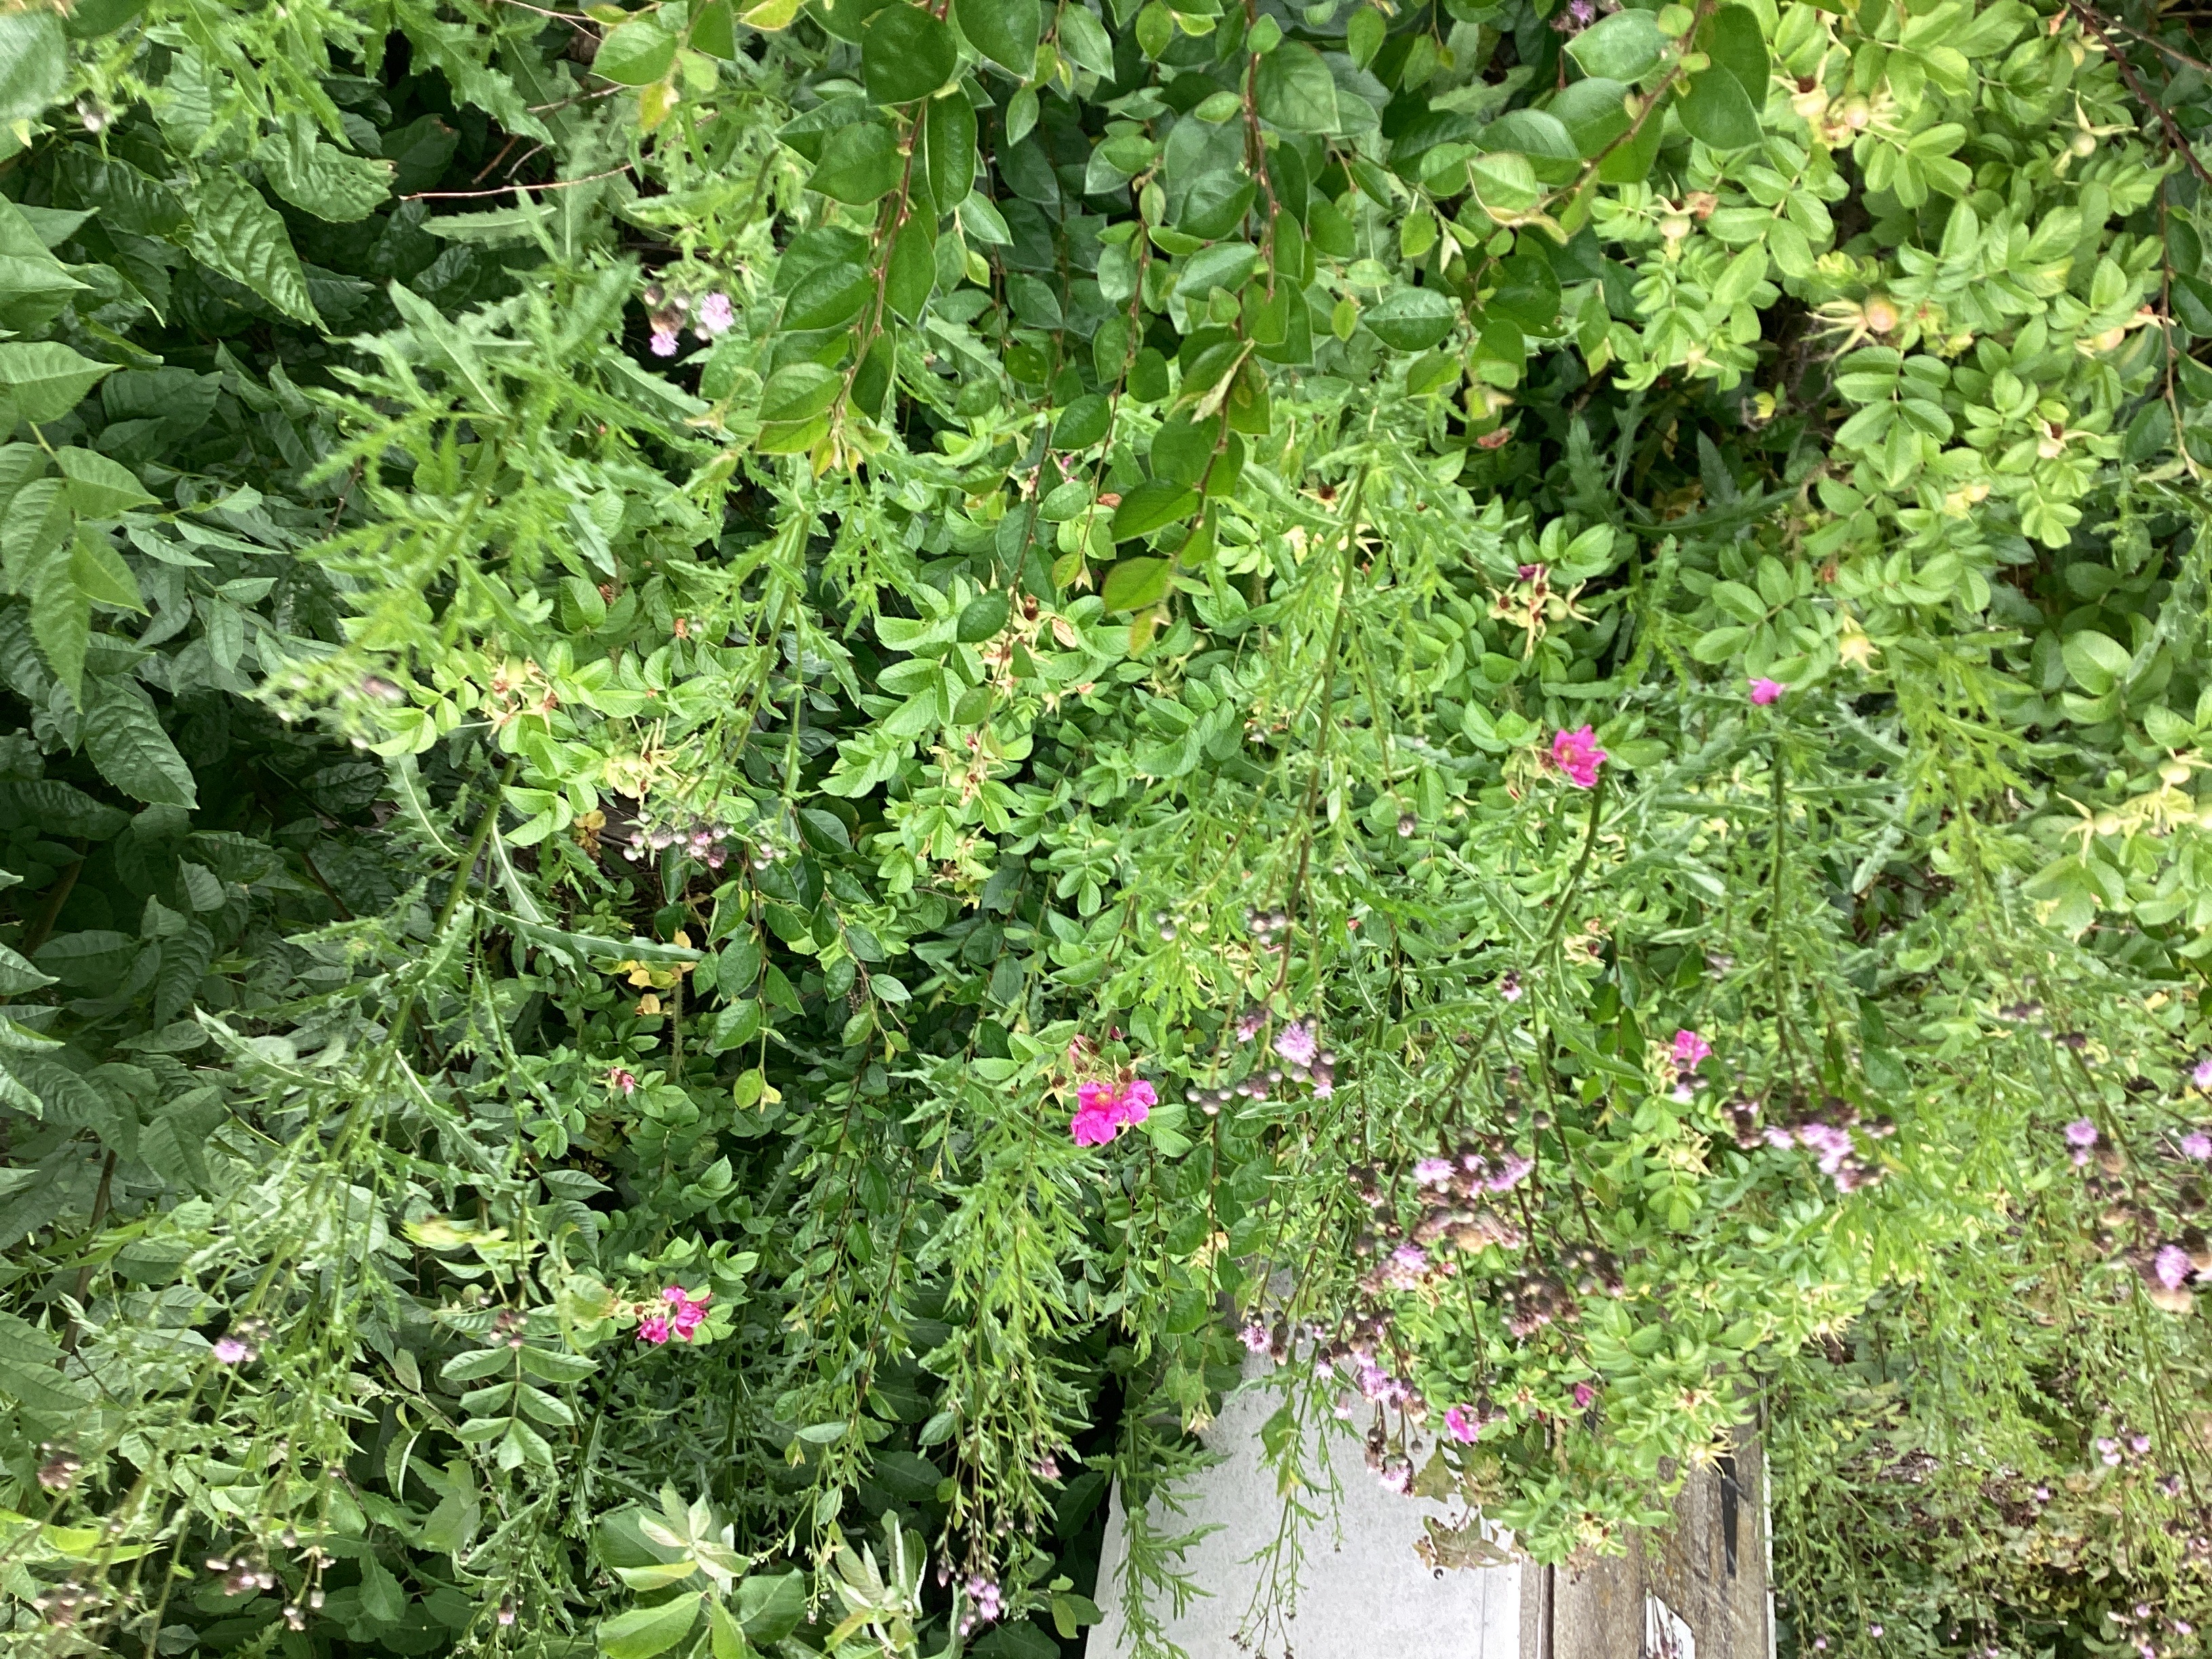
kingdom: Plantae
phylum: Tracheophyta
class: Magnoliopsida
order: Rosales
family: Rosaceae
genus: Rosa
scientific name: Rosa rugosa
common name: rynkerose
